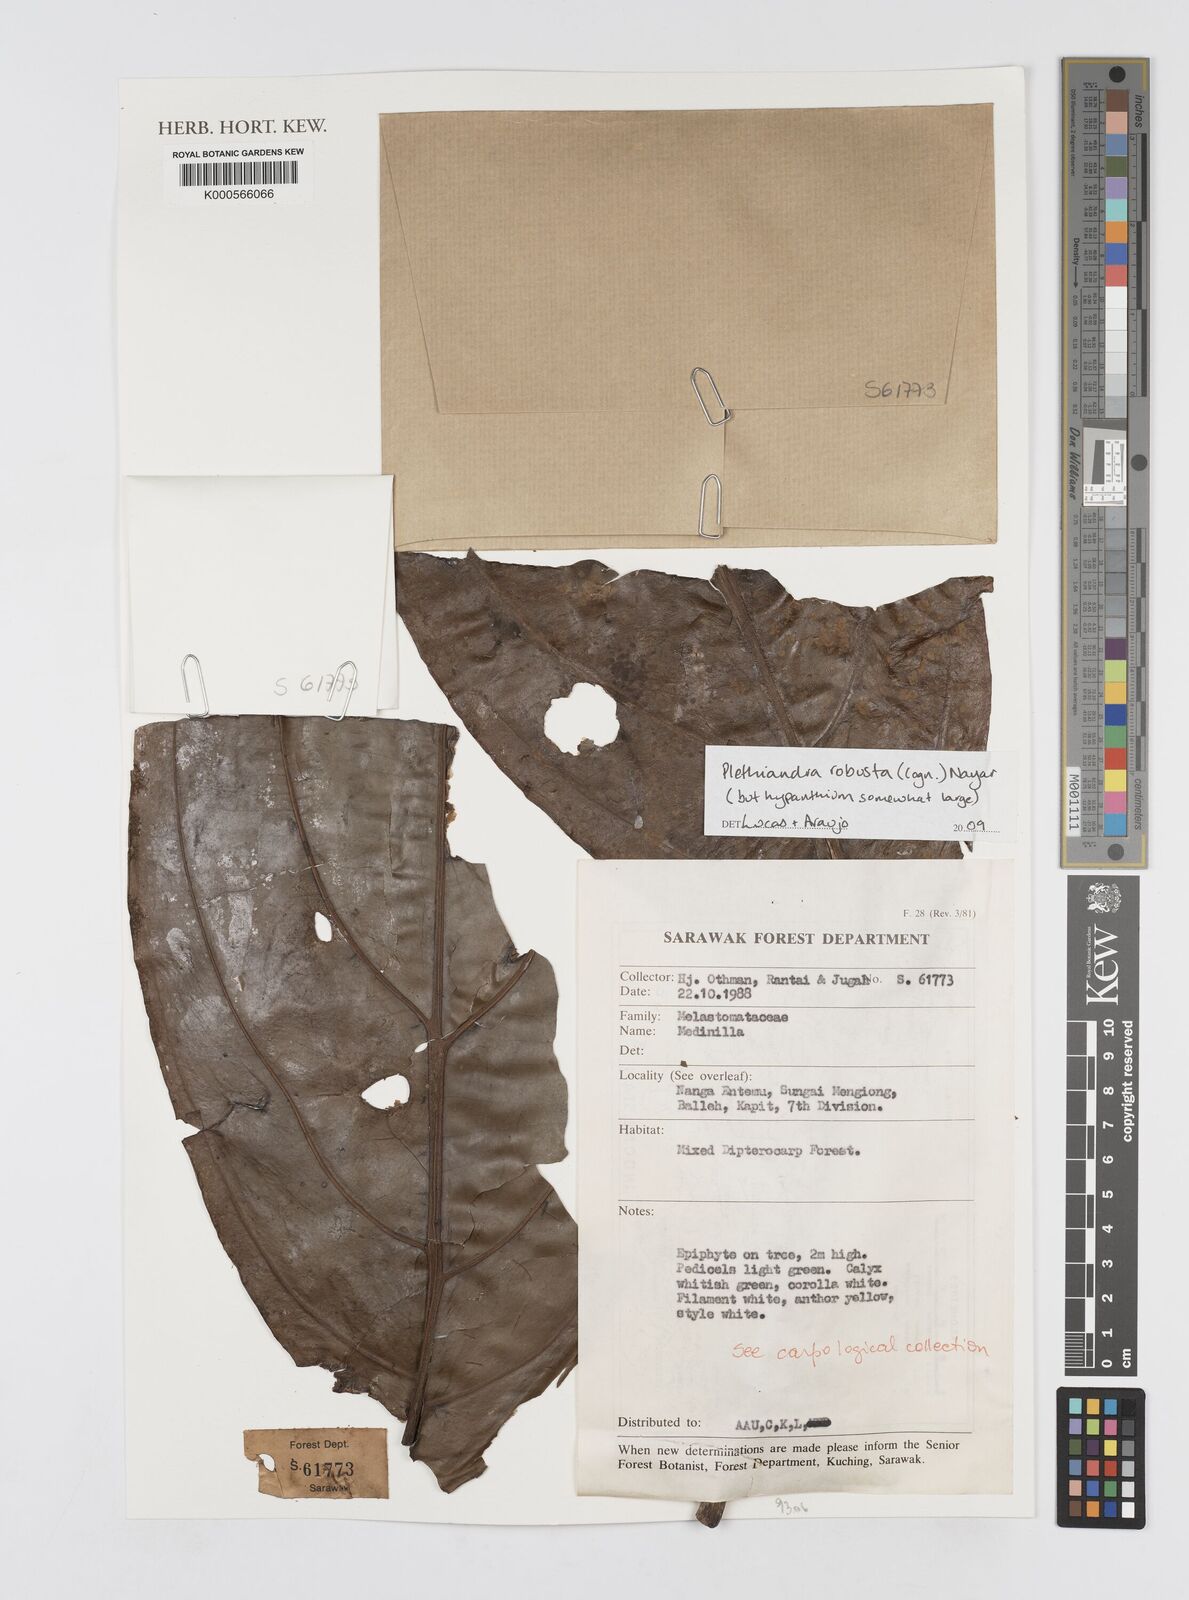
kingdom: Plantae
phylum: Tracheophyta
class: Magnoliopsida
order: Myrtales
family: Melastomataceae
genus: Plethiandra
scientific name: Plethiandra robusta
